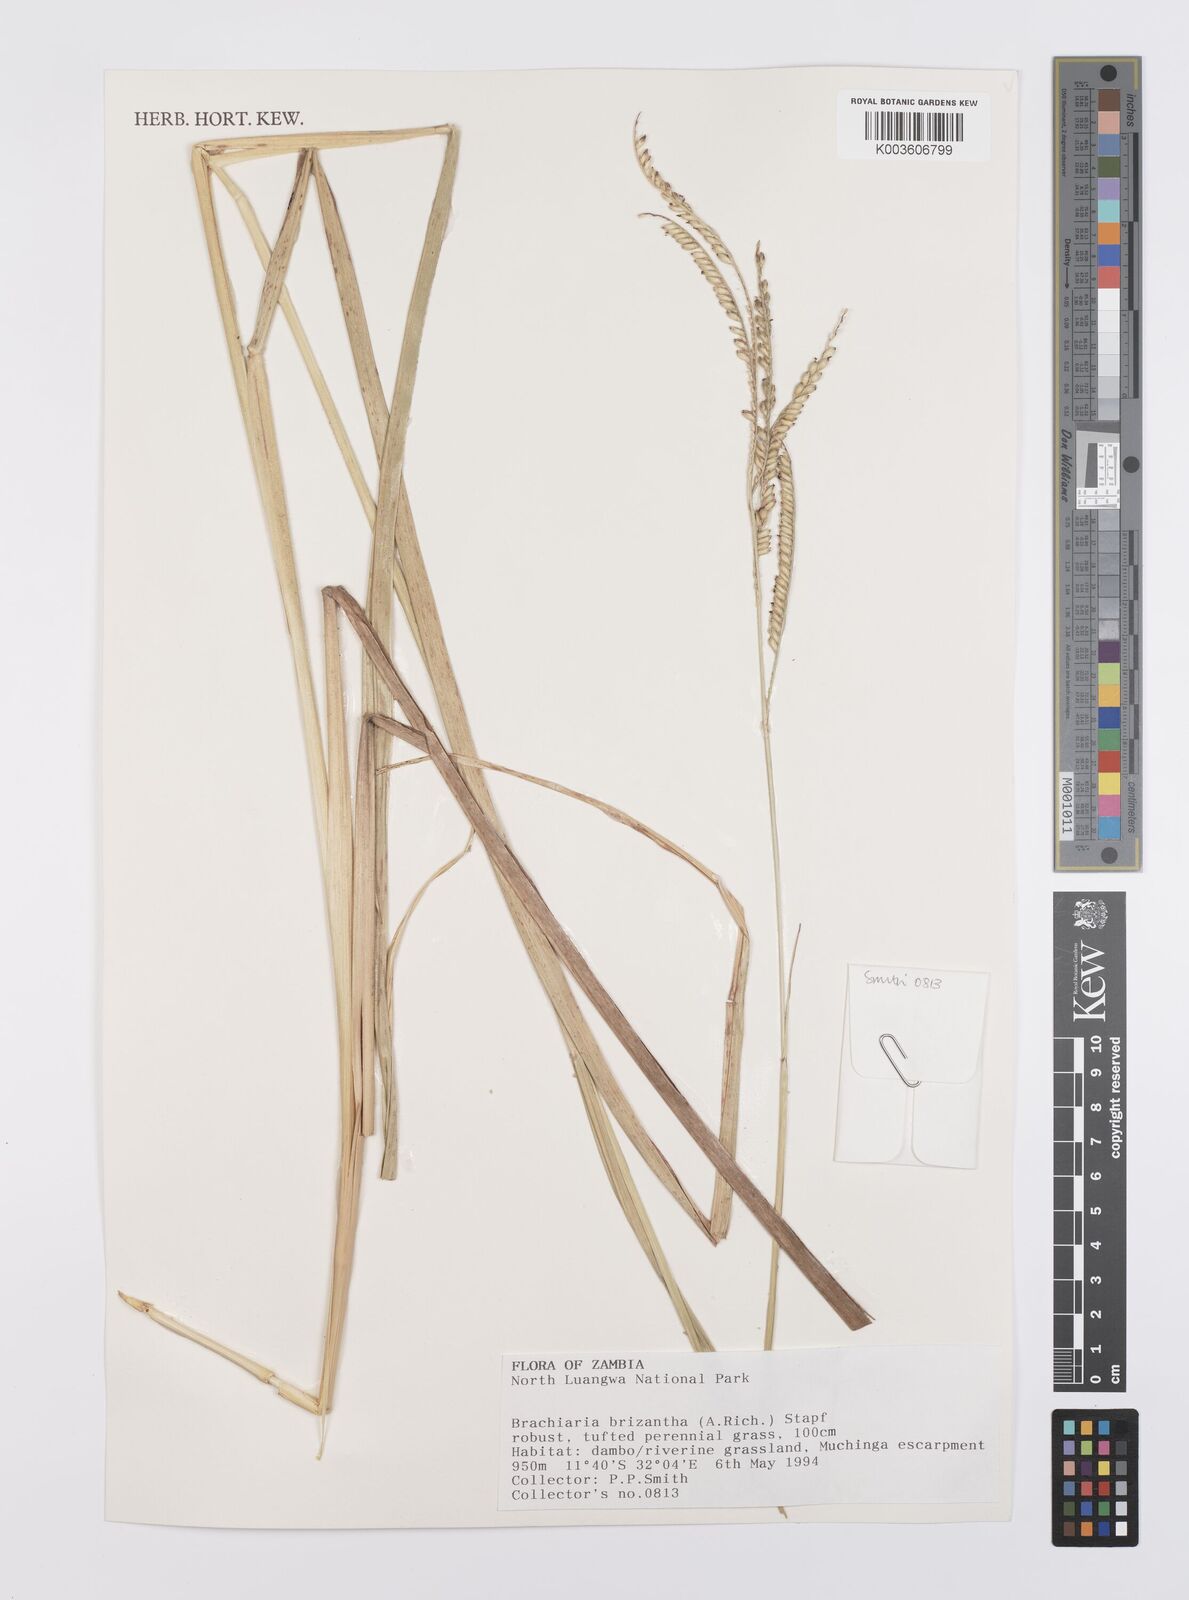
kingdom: Plantae
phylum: Tracheophyta
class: Liliopsida
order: Poales
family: Poaceae
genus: Urochloa
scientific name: Urochloa brizantha
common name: Palisade signalgrass
